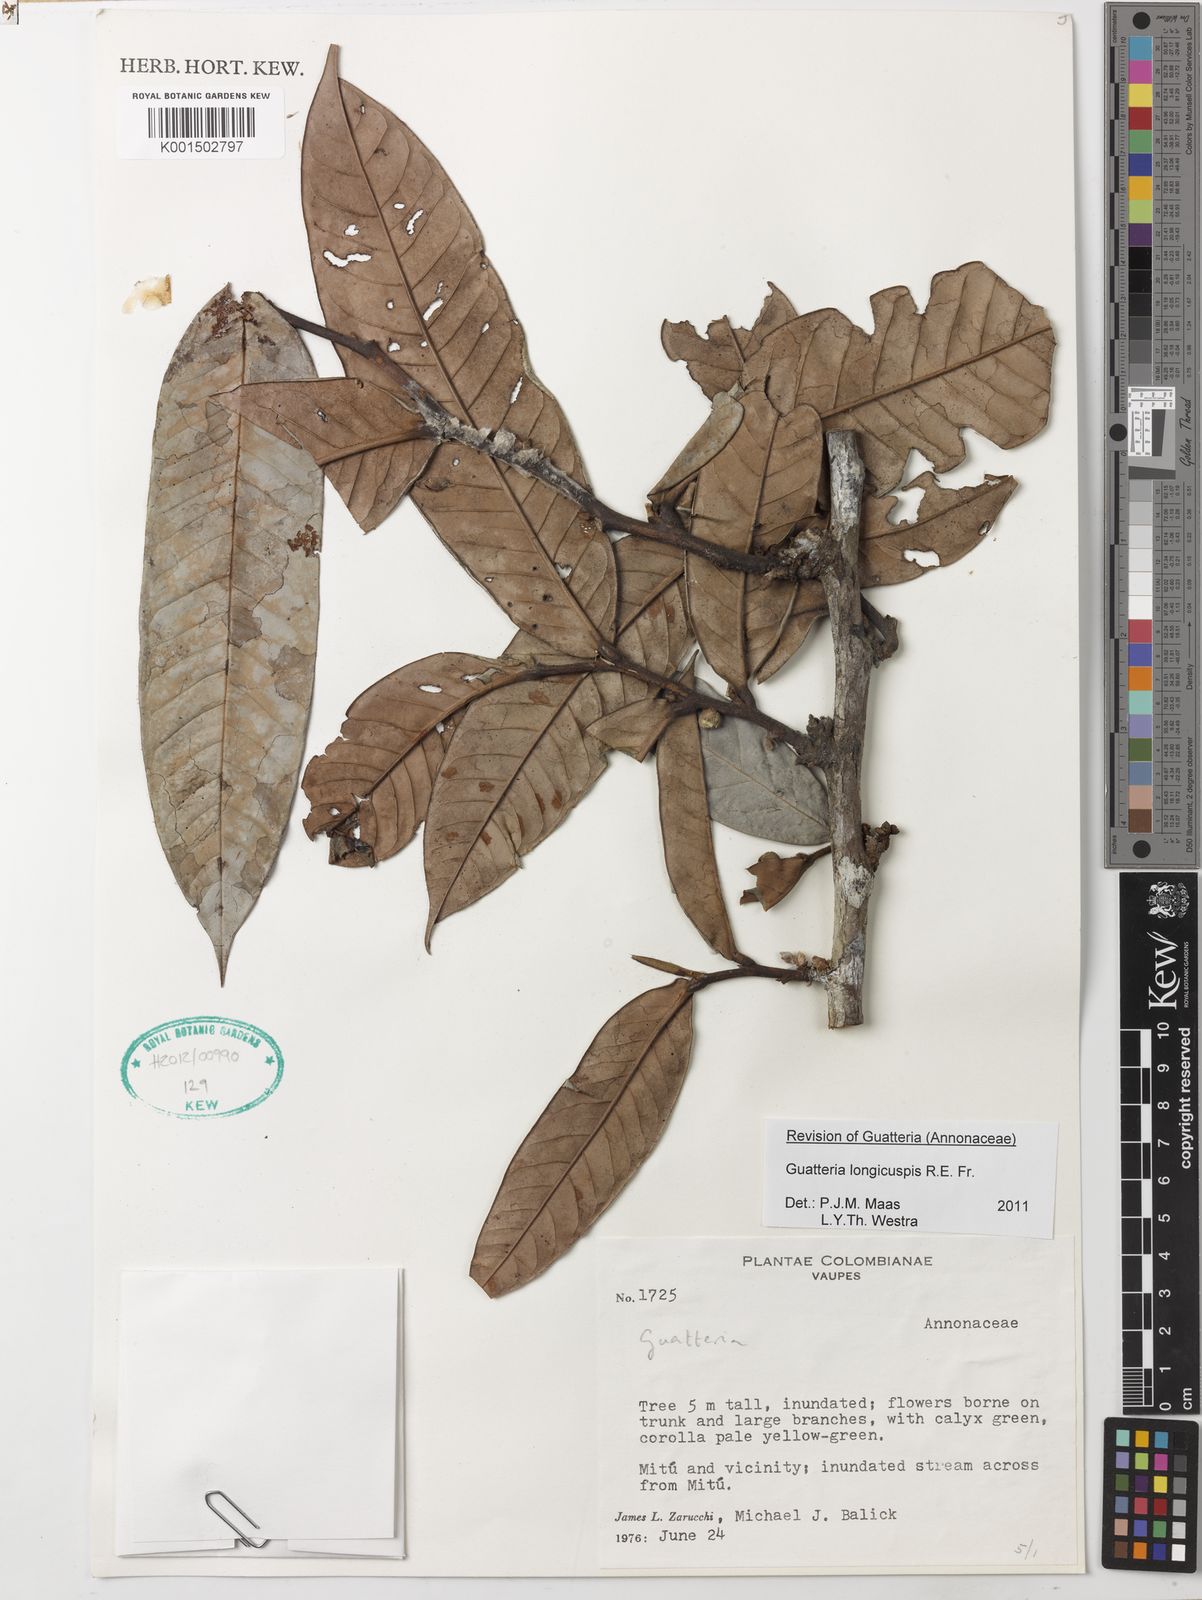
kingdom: Plantae
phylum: Tracheophyta
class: Magnoliopsida
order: Magnoliales
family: Annonaceae
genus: Guatteria
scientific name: Guatteria longicuspis
